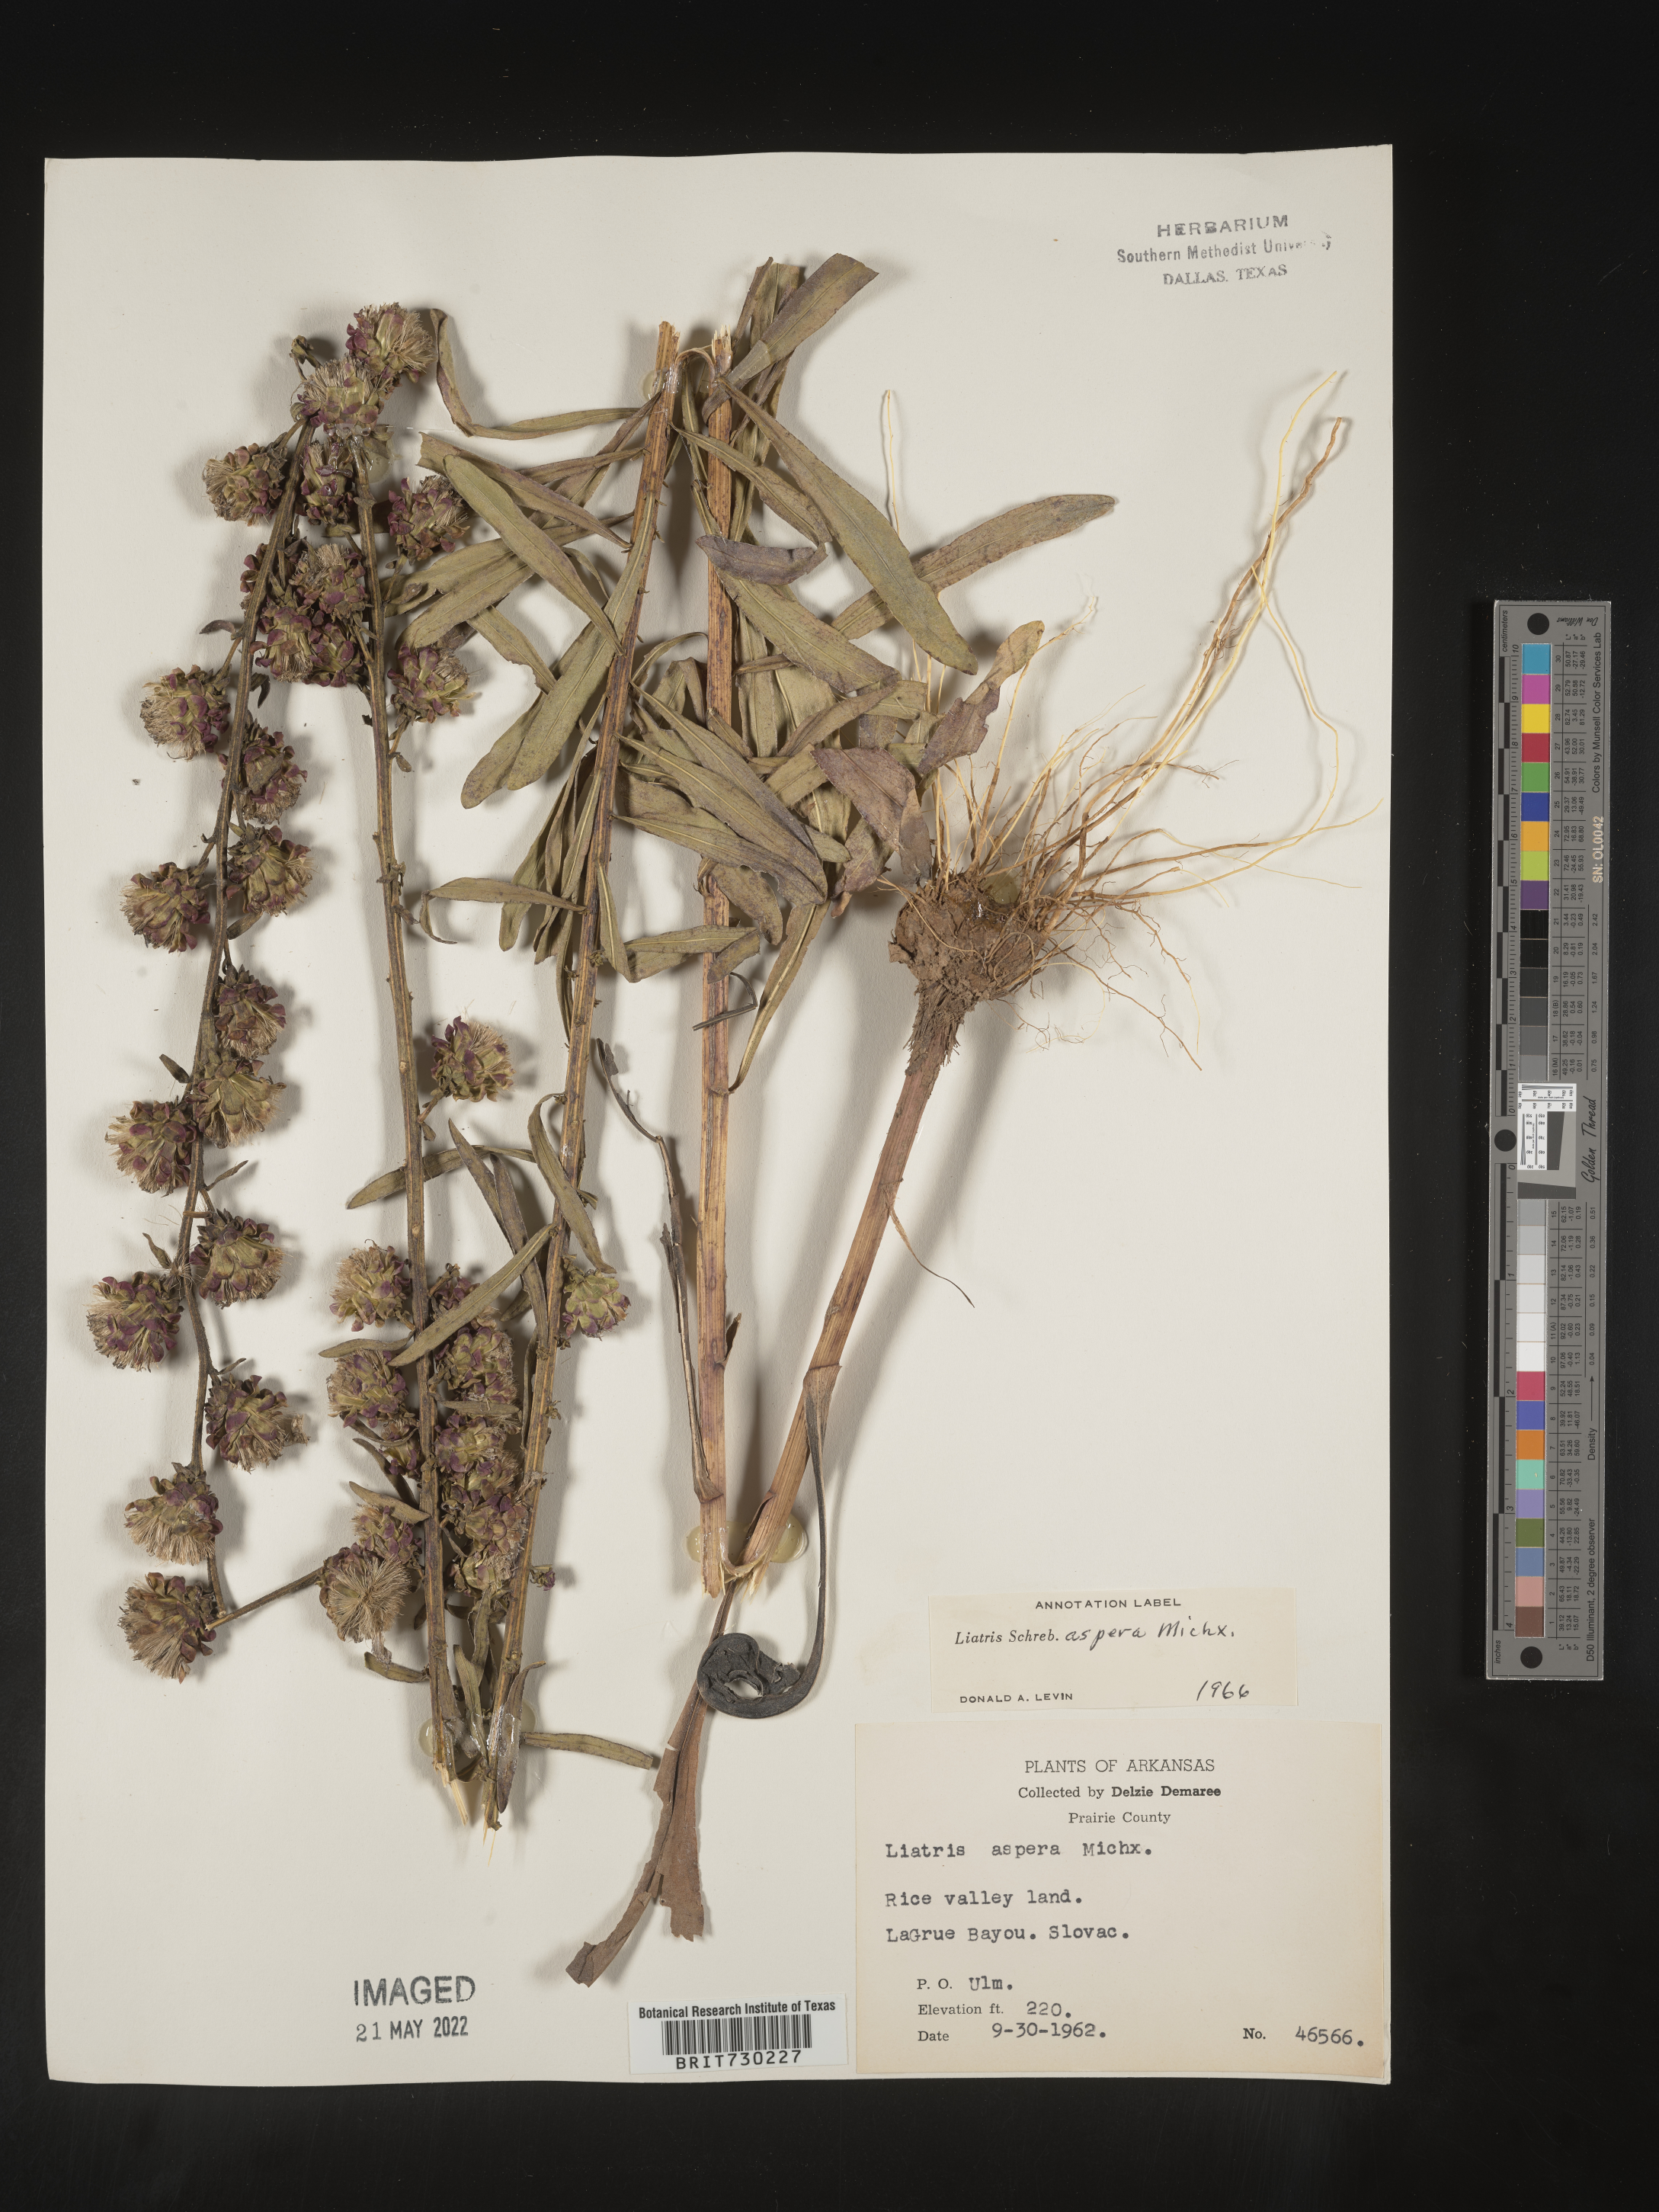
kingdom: Plantae
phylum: Tracheophyta
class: Magnoliopsida
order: Asterales
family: Asteraceae
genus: Liatris
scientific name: Liatris aspera
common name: Lacerate blazing-star
